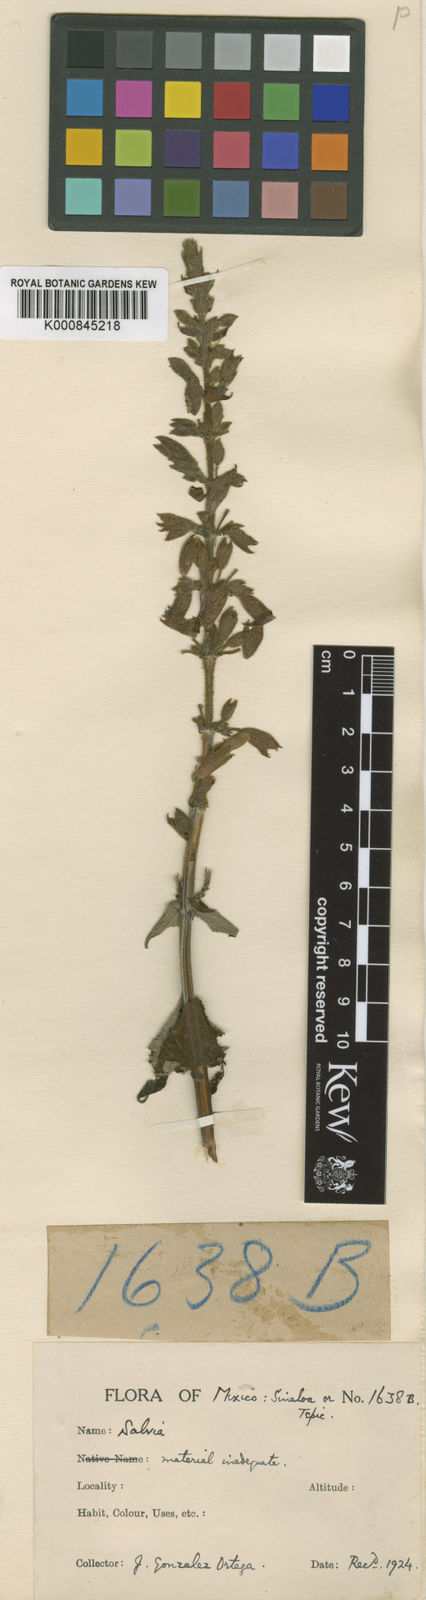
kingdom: Plantae
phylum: Tracheophyta
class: Magnoliopsida
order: Lamiales
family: Lamiaceae
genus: Salvia
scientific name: Salvia
